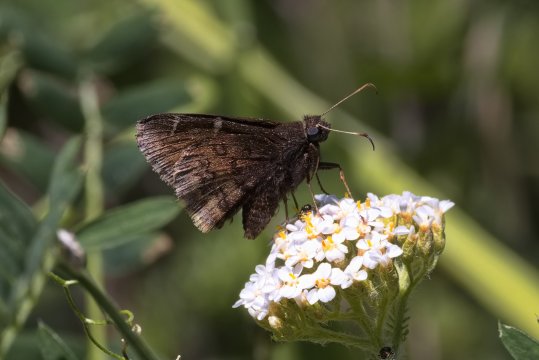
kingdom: Animalia
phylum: Arthropoda
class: Insecta
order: Lepidoptera
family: Hesperiidae
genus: Autochton
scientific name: Autochton
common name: Northern Cloudywing
